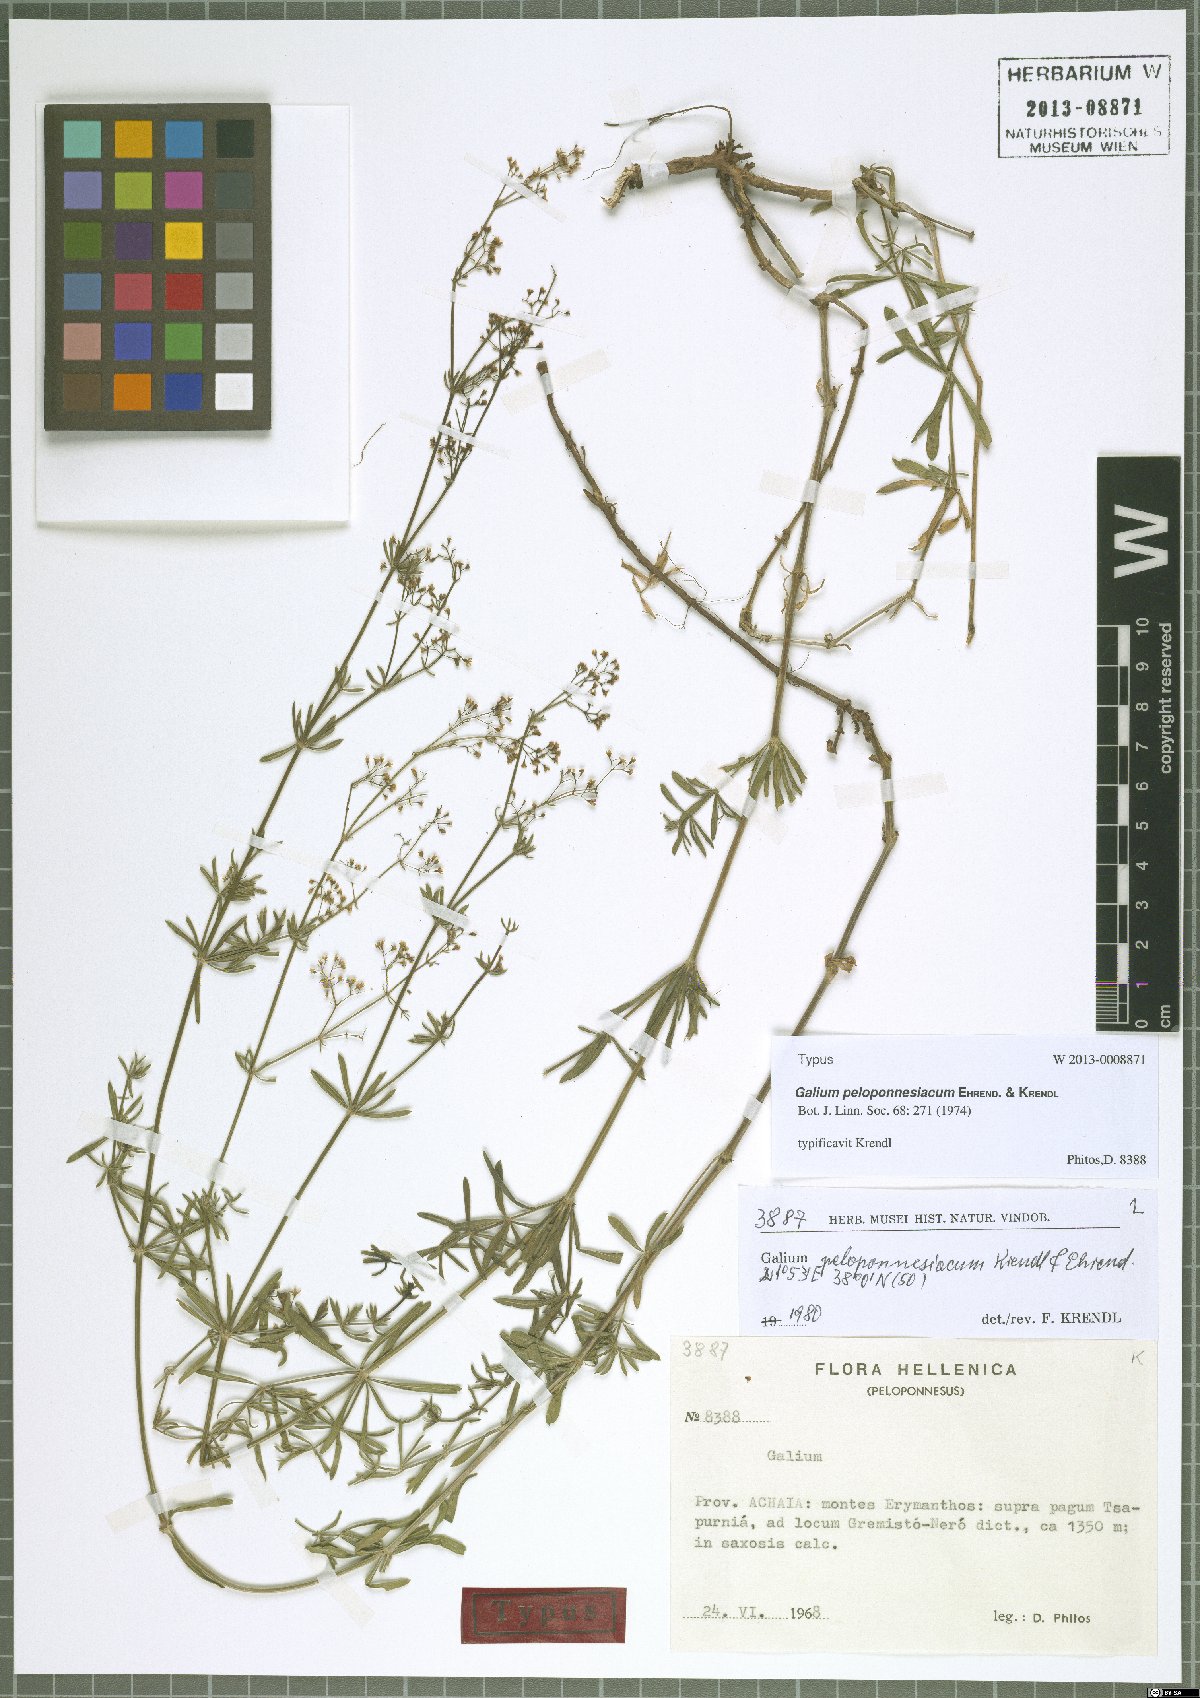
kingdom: Plantae
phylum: Tracheophyta
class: Magnoliopsida
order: Gentianales
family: Rubiaceae
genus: Galium
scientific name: Galium peloponnesiacum
